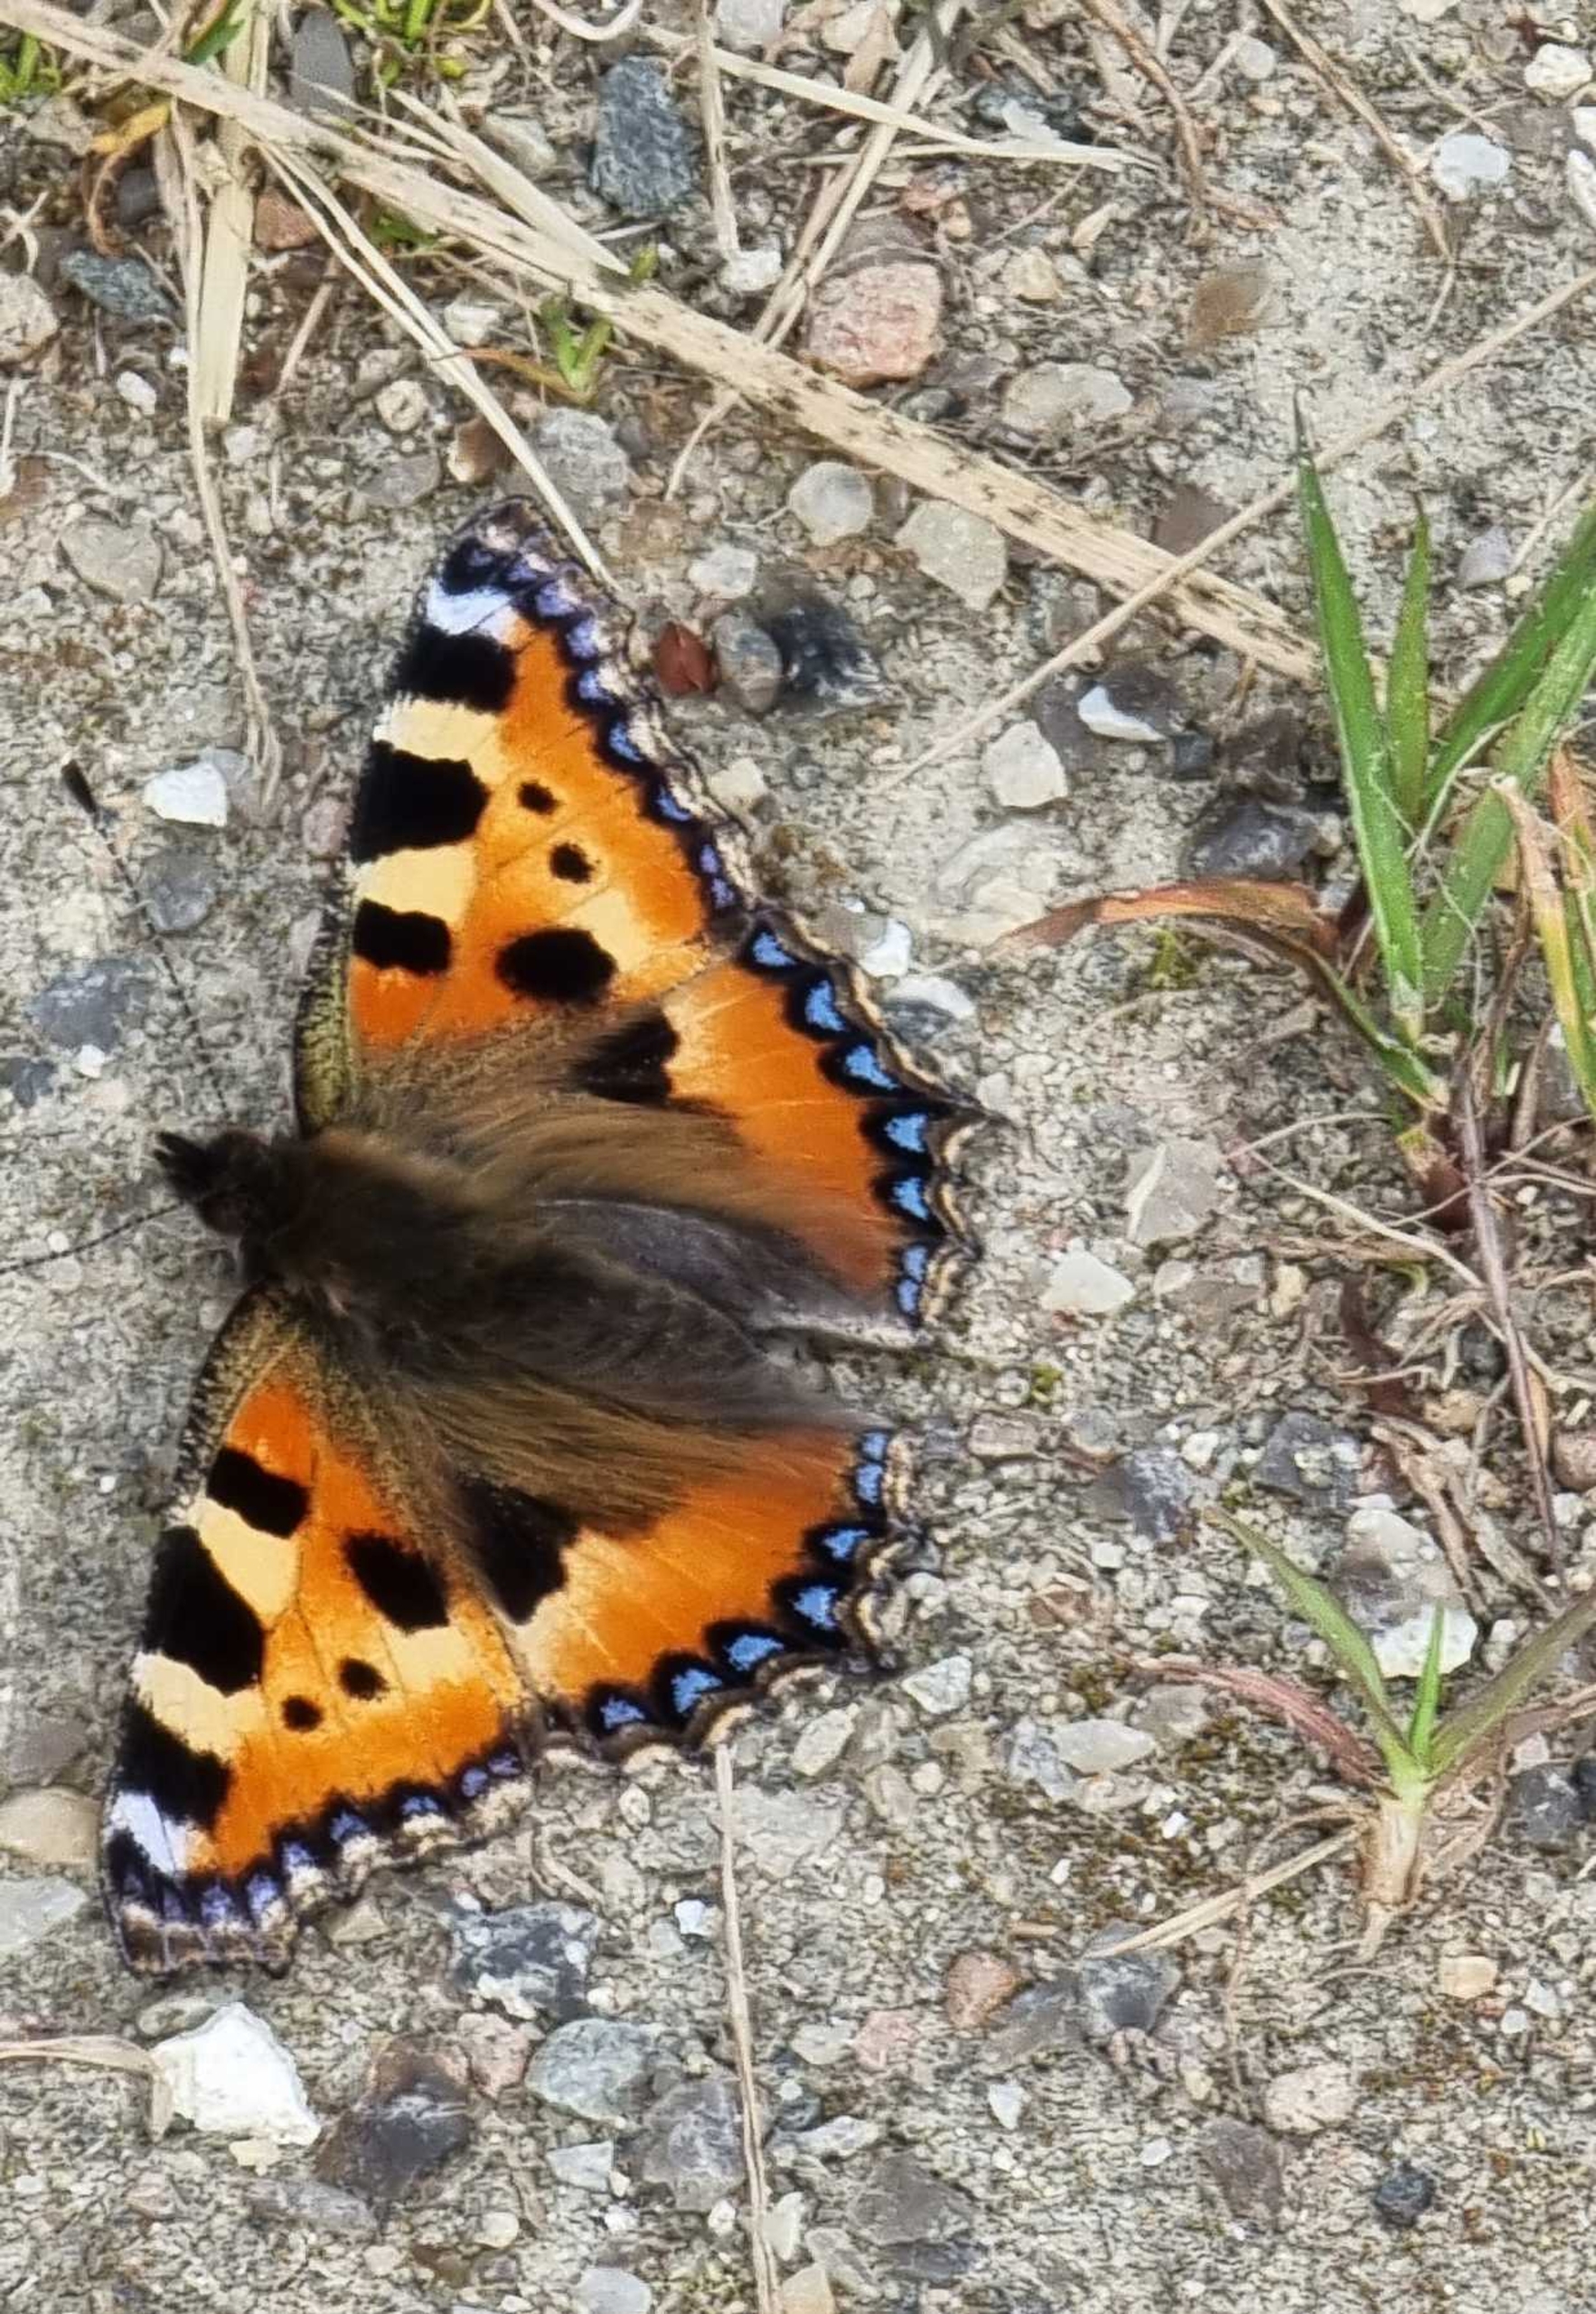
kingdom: Animalia
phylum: Arthropoda
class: Insecta
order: Lepidoptera
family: Nymphalidae
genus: Aglais
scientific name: Aglais urticae
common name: Nældens takvinge
